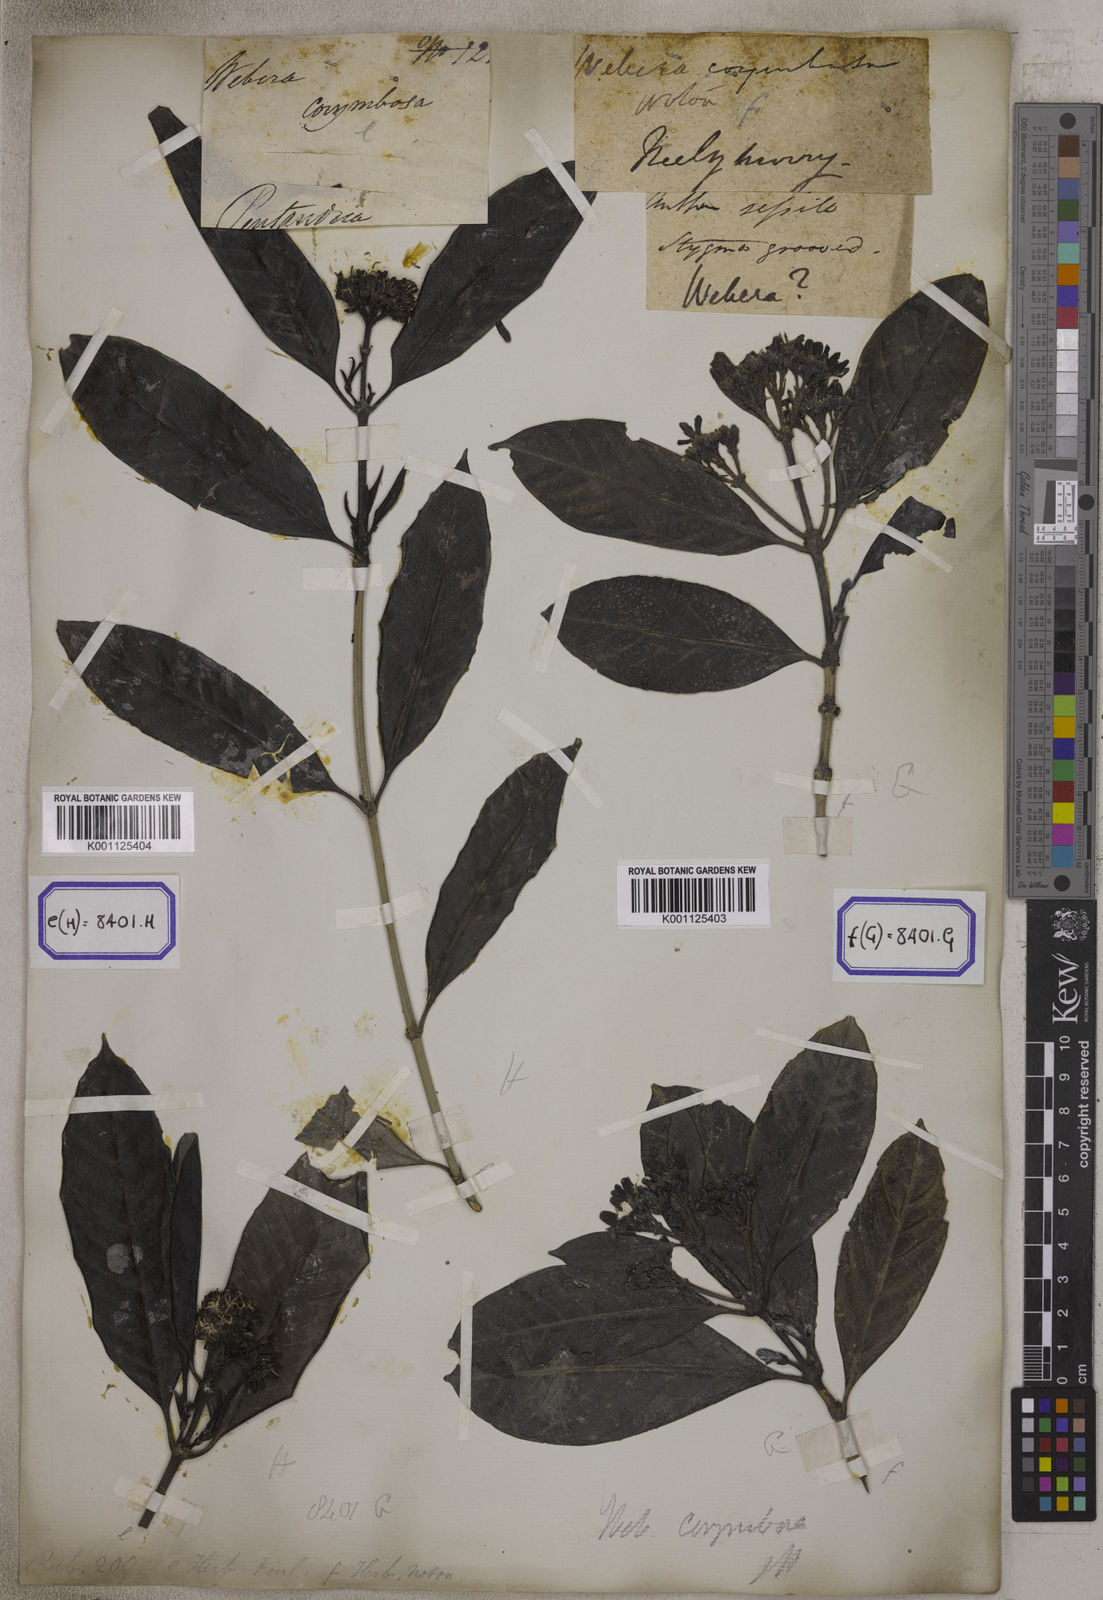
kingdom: Plantae
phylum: Tracheophyta
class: Magnoliopsida
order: Gentianales
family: Rubiaceae
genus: Tarenna
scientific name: Tarenna asiatica
